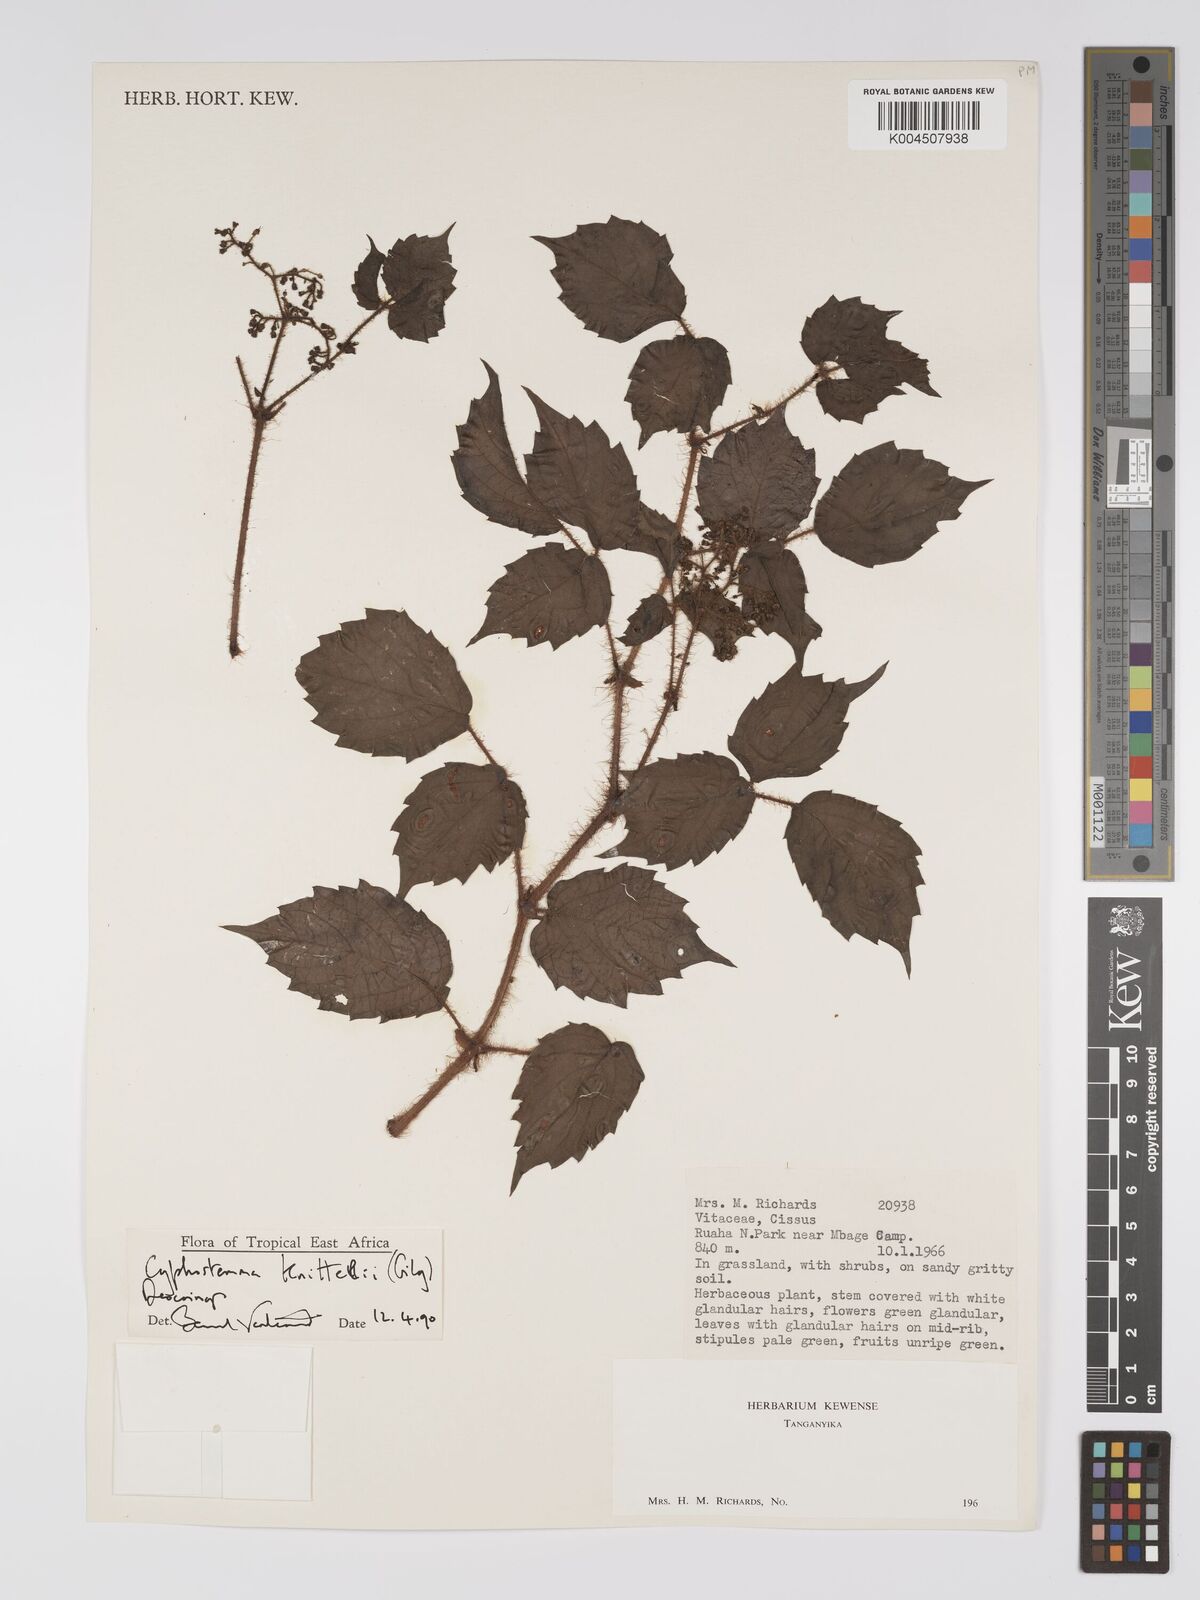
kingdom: Plantae
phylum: Tracheophyta
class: Magnoliopsida
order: Vitales
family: Vitaceae
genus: Cyphostemma
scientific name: Cyphostemma knittelii
